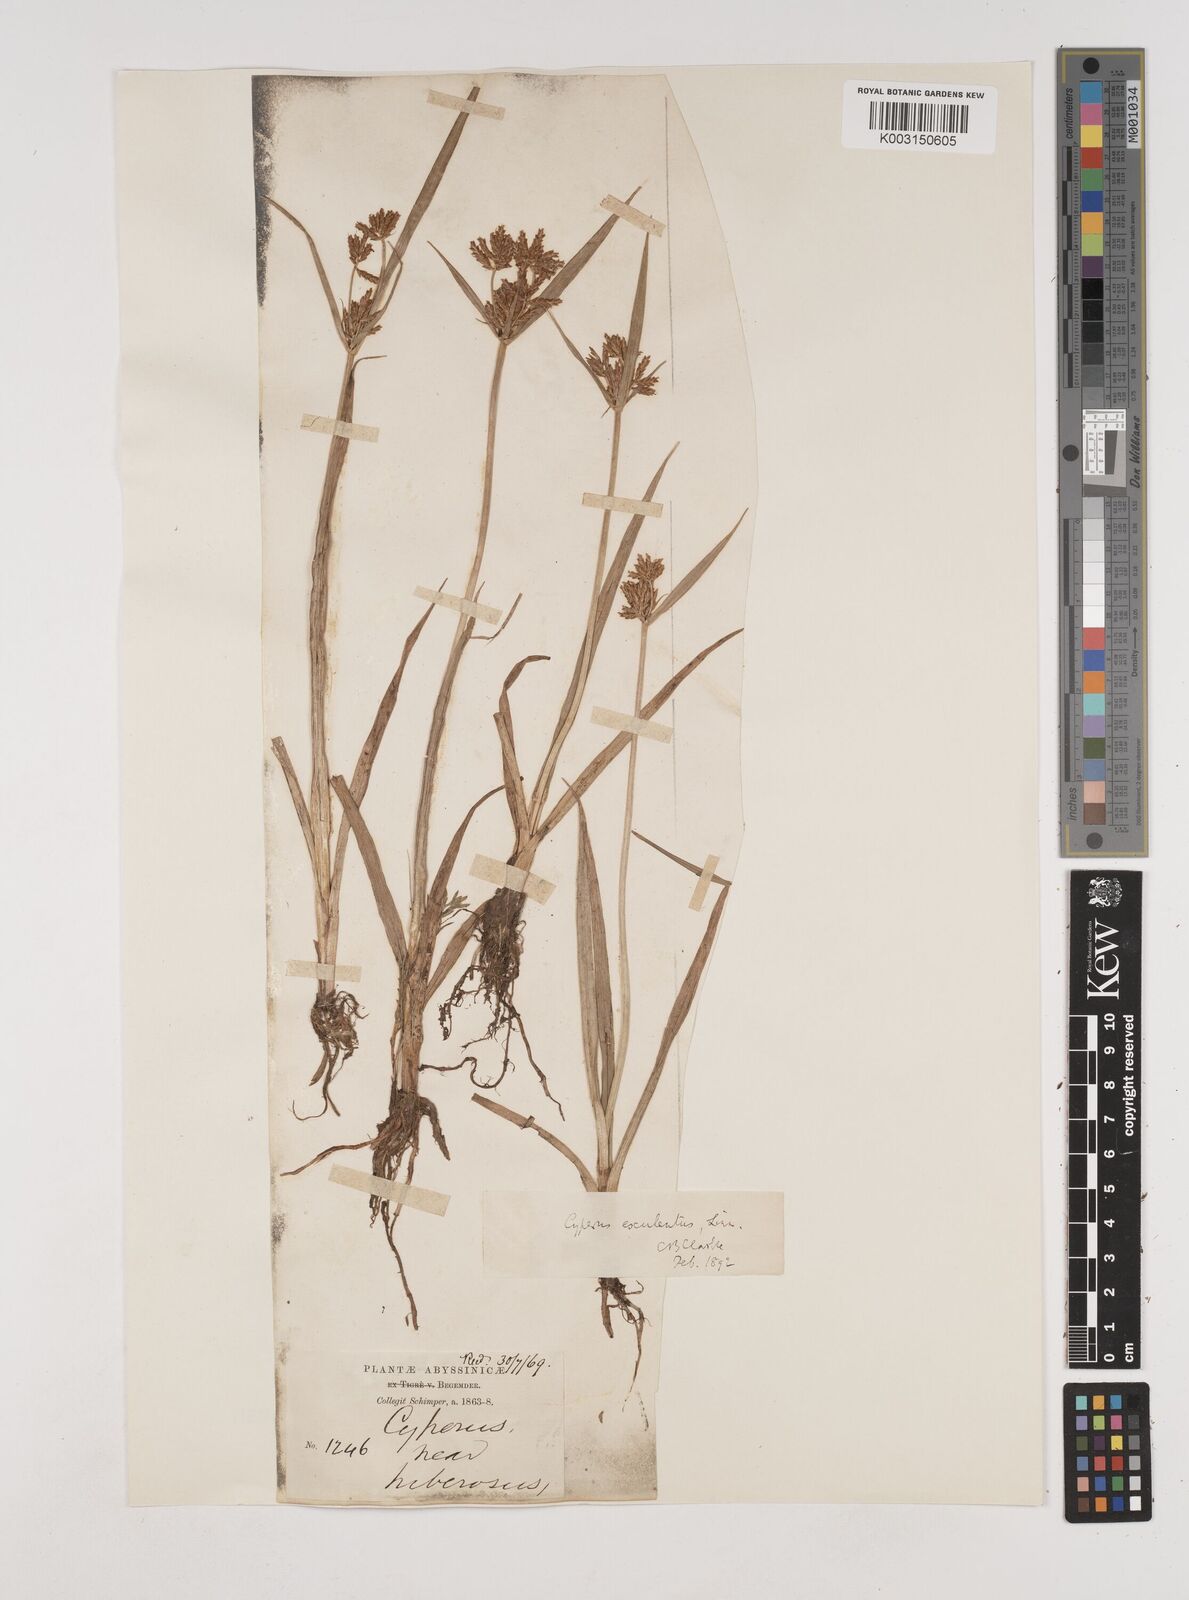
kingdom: Plantae
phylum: Tracheophyta
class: Liliopsida
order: Poales
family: Cyperaceae
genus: Cyperus
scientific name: Cyperus esculentus
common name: Yellow nutsedge
